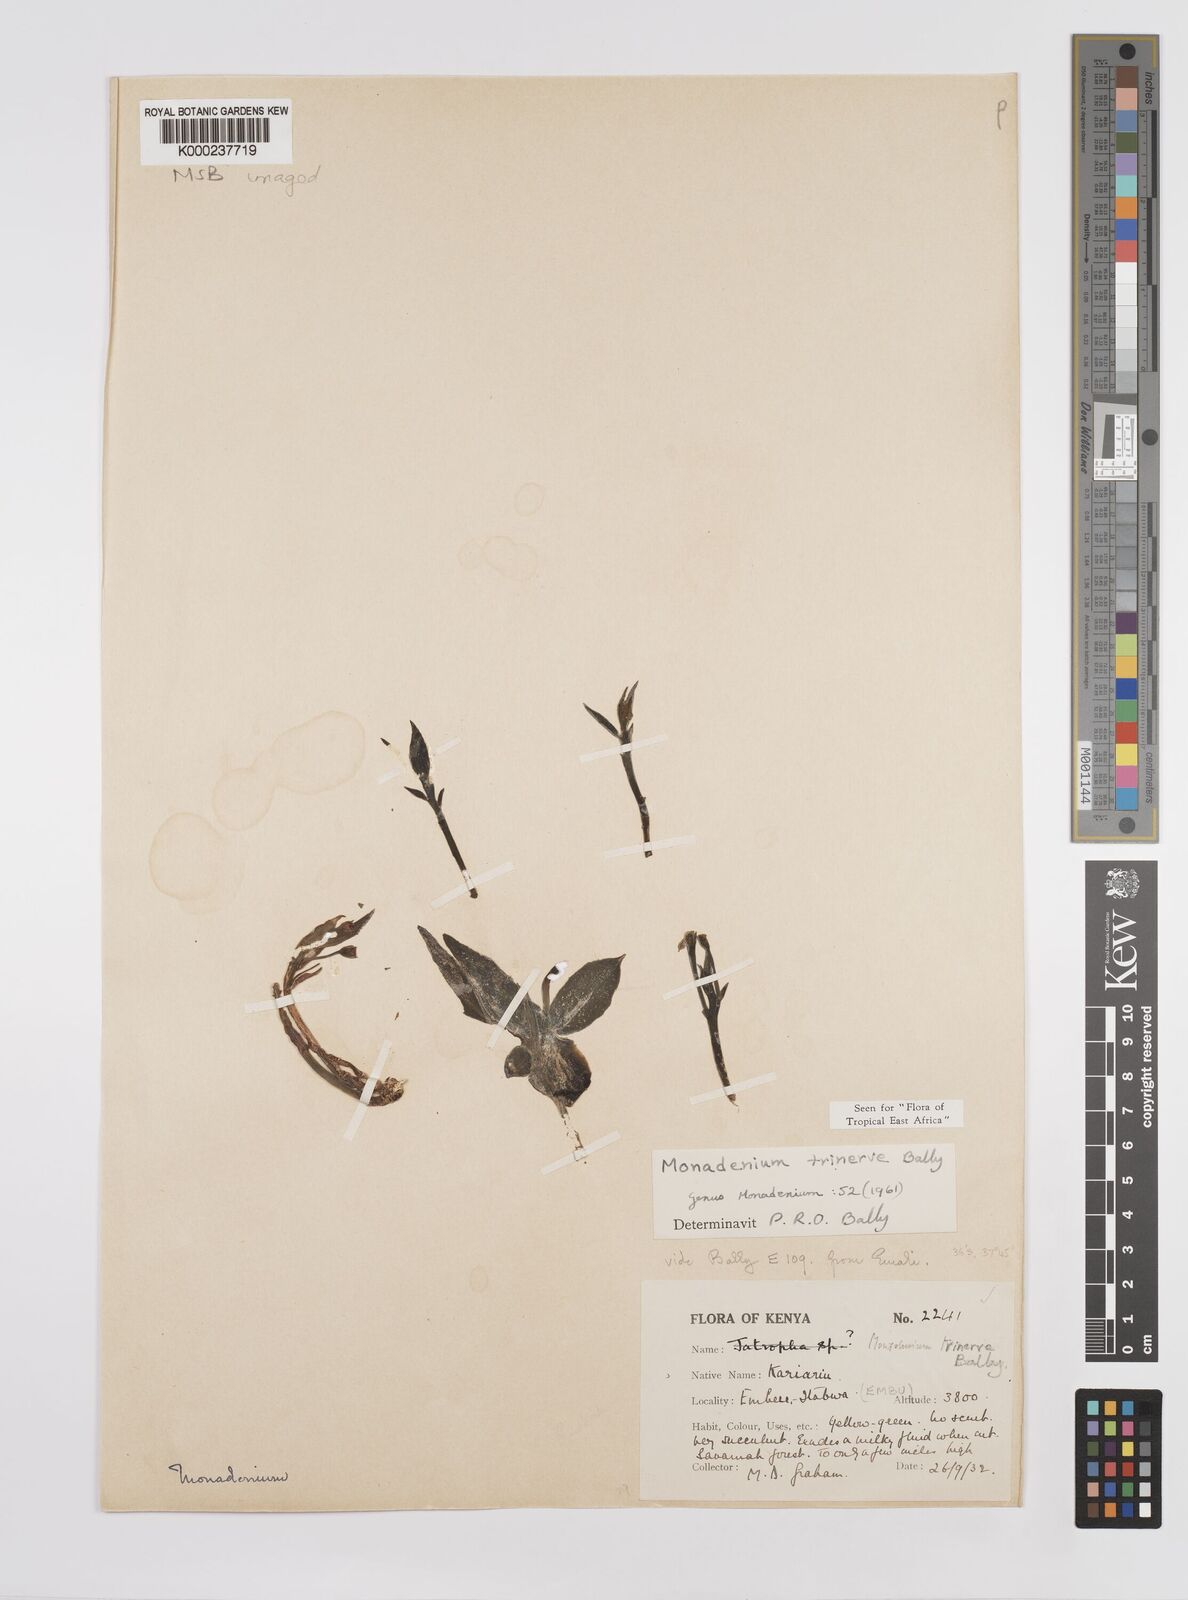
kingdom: Plantae
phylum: Tracheophyta
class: Magnoliopsida
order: Malpighiales
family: Euphorbiaceae
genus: Euphorbia
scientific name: Euphorbia pseudotrinervis
